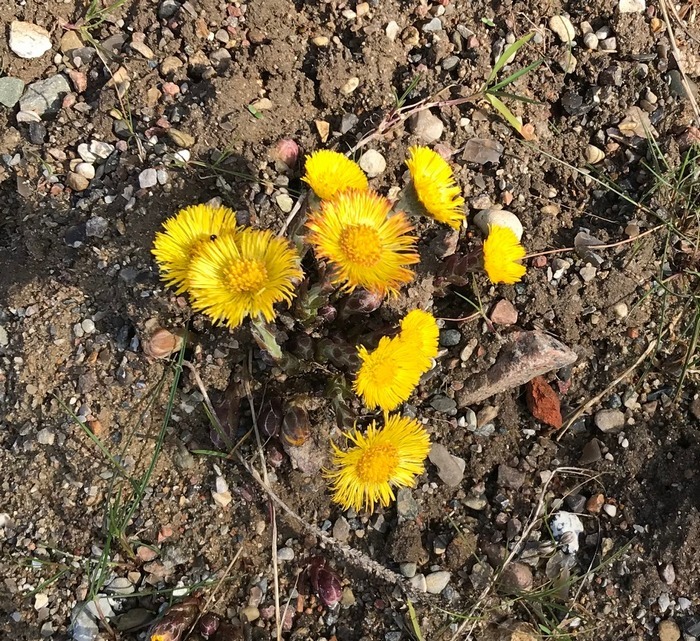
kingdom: Plantae
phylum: Tracheophyta
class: Magnoliopsida
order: Asterales
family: Asteraceae
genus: Tussilago
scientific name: Tussilago farfara
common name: Følfod
